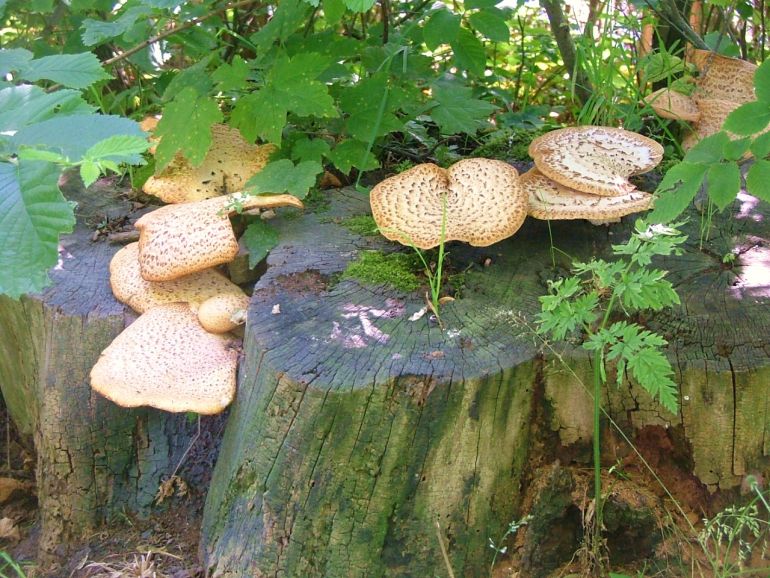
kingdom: Fungi
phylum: Basidiomycota
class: Agaricomycetes
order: Polyporales
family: Polyporaceae
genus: Cerioporus
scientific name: Cerioporus squamosus
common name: skællet stilkporesvamp
